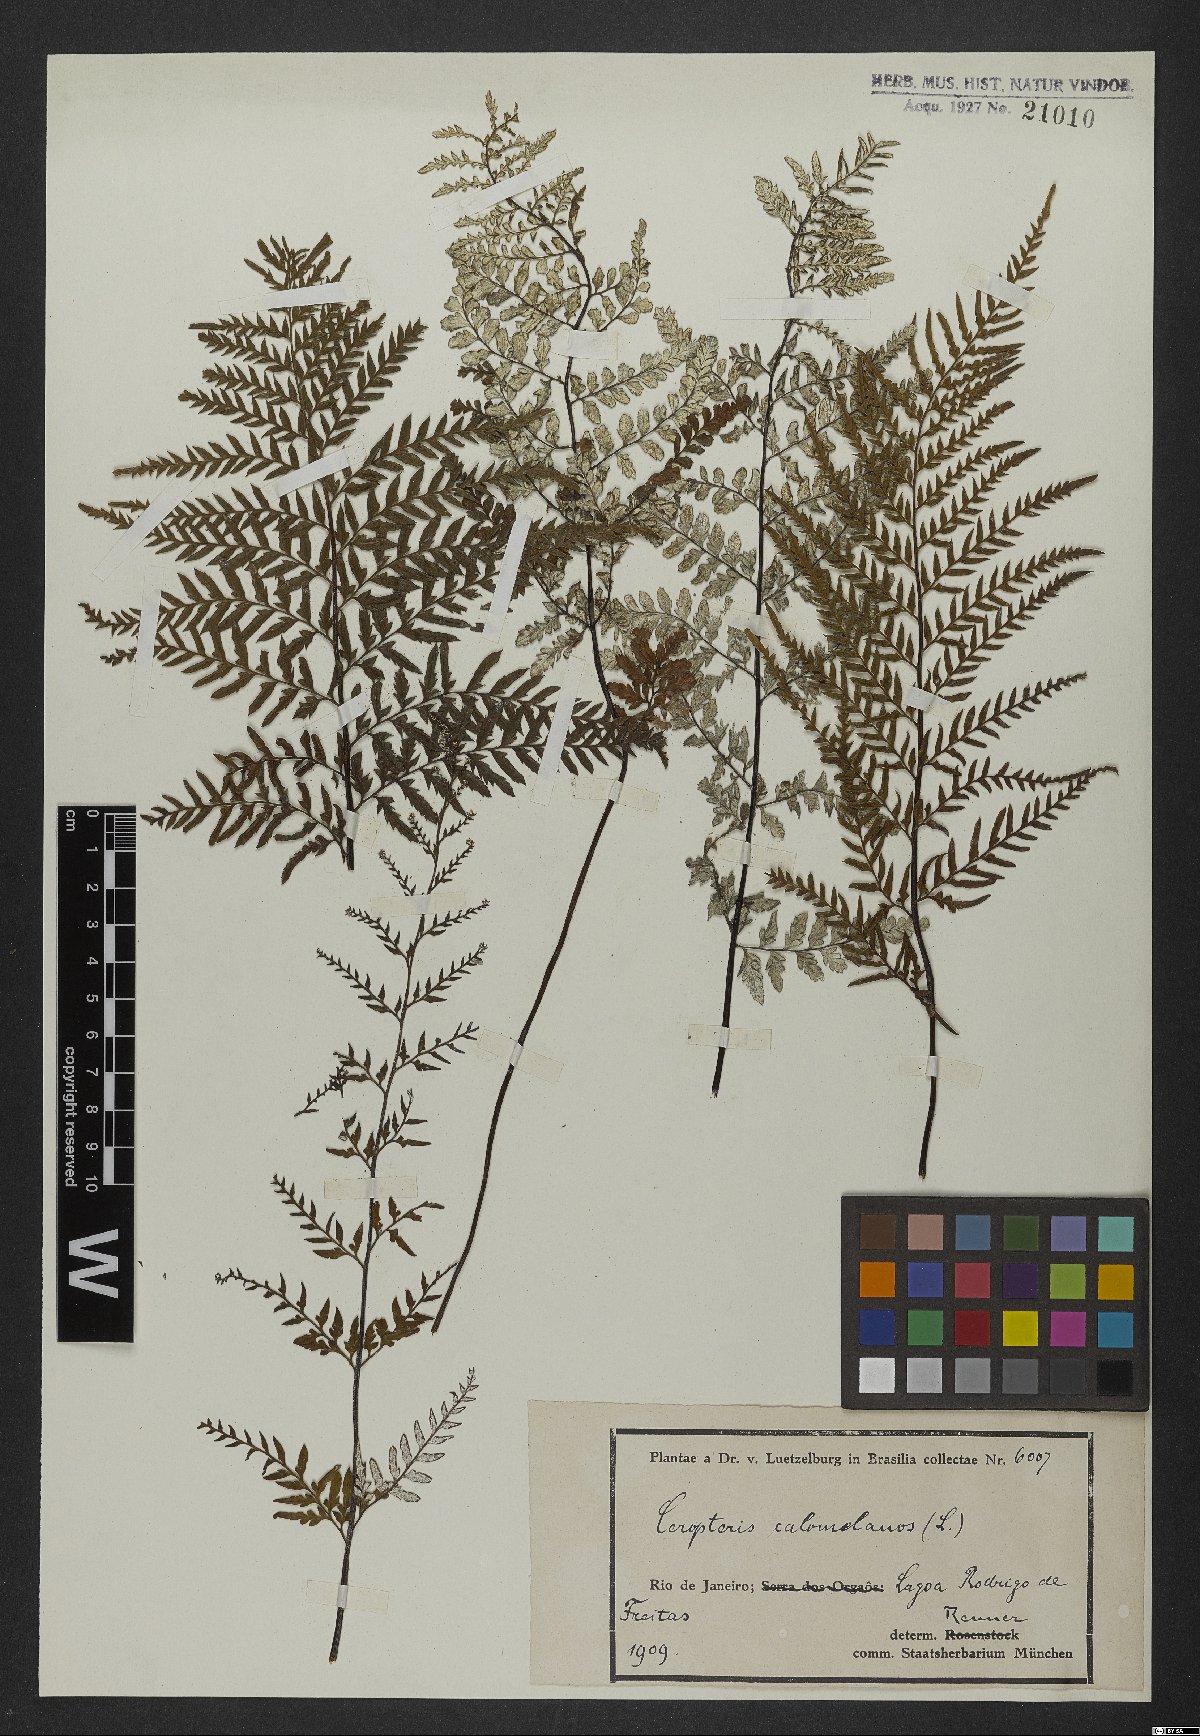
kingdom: Plantae
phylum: Tracheophyta
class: Polypodiopsida
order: Polypodiales
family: Pteridaceae
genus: Pityrogramma
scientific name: Pityrogramma calomelanos
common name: Dixie silverback fern
